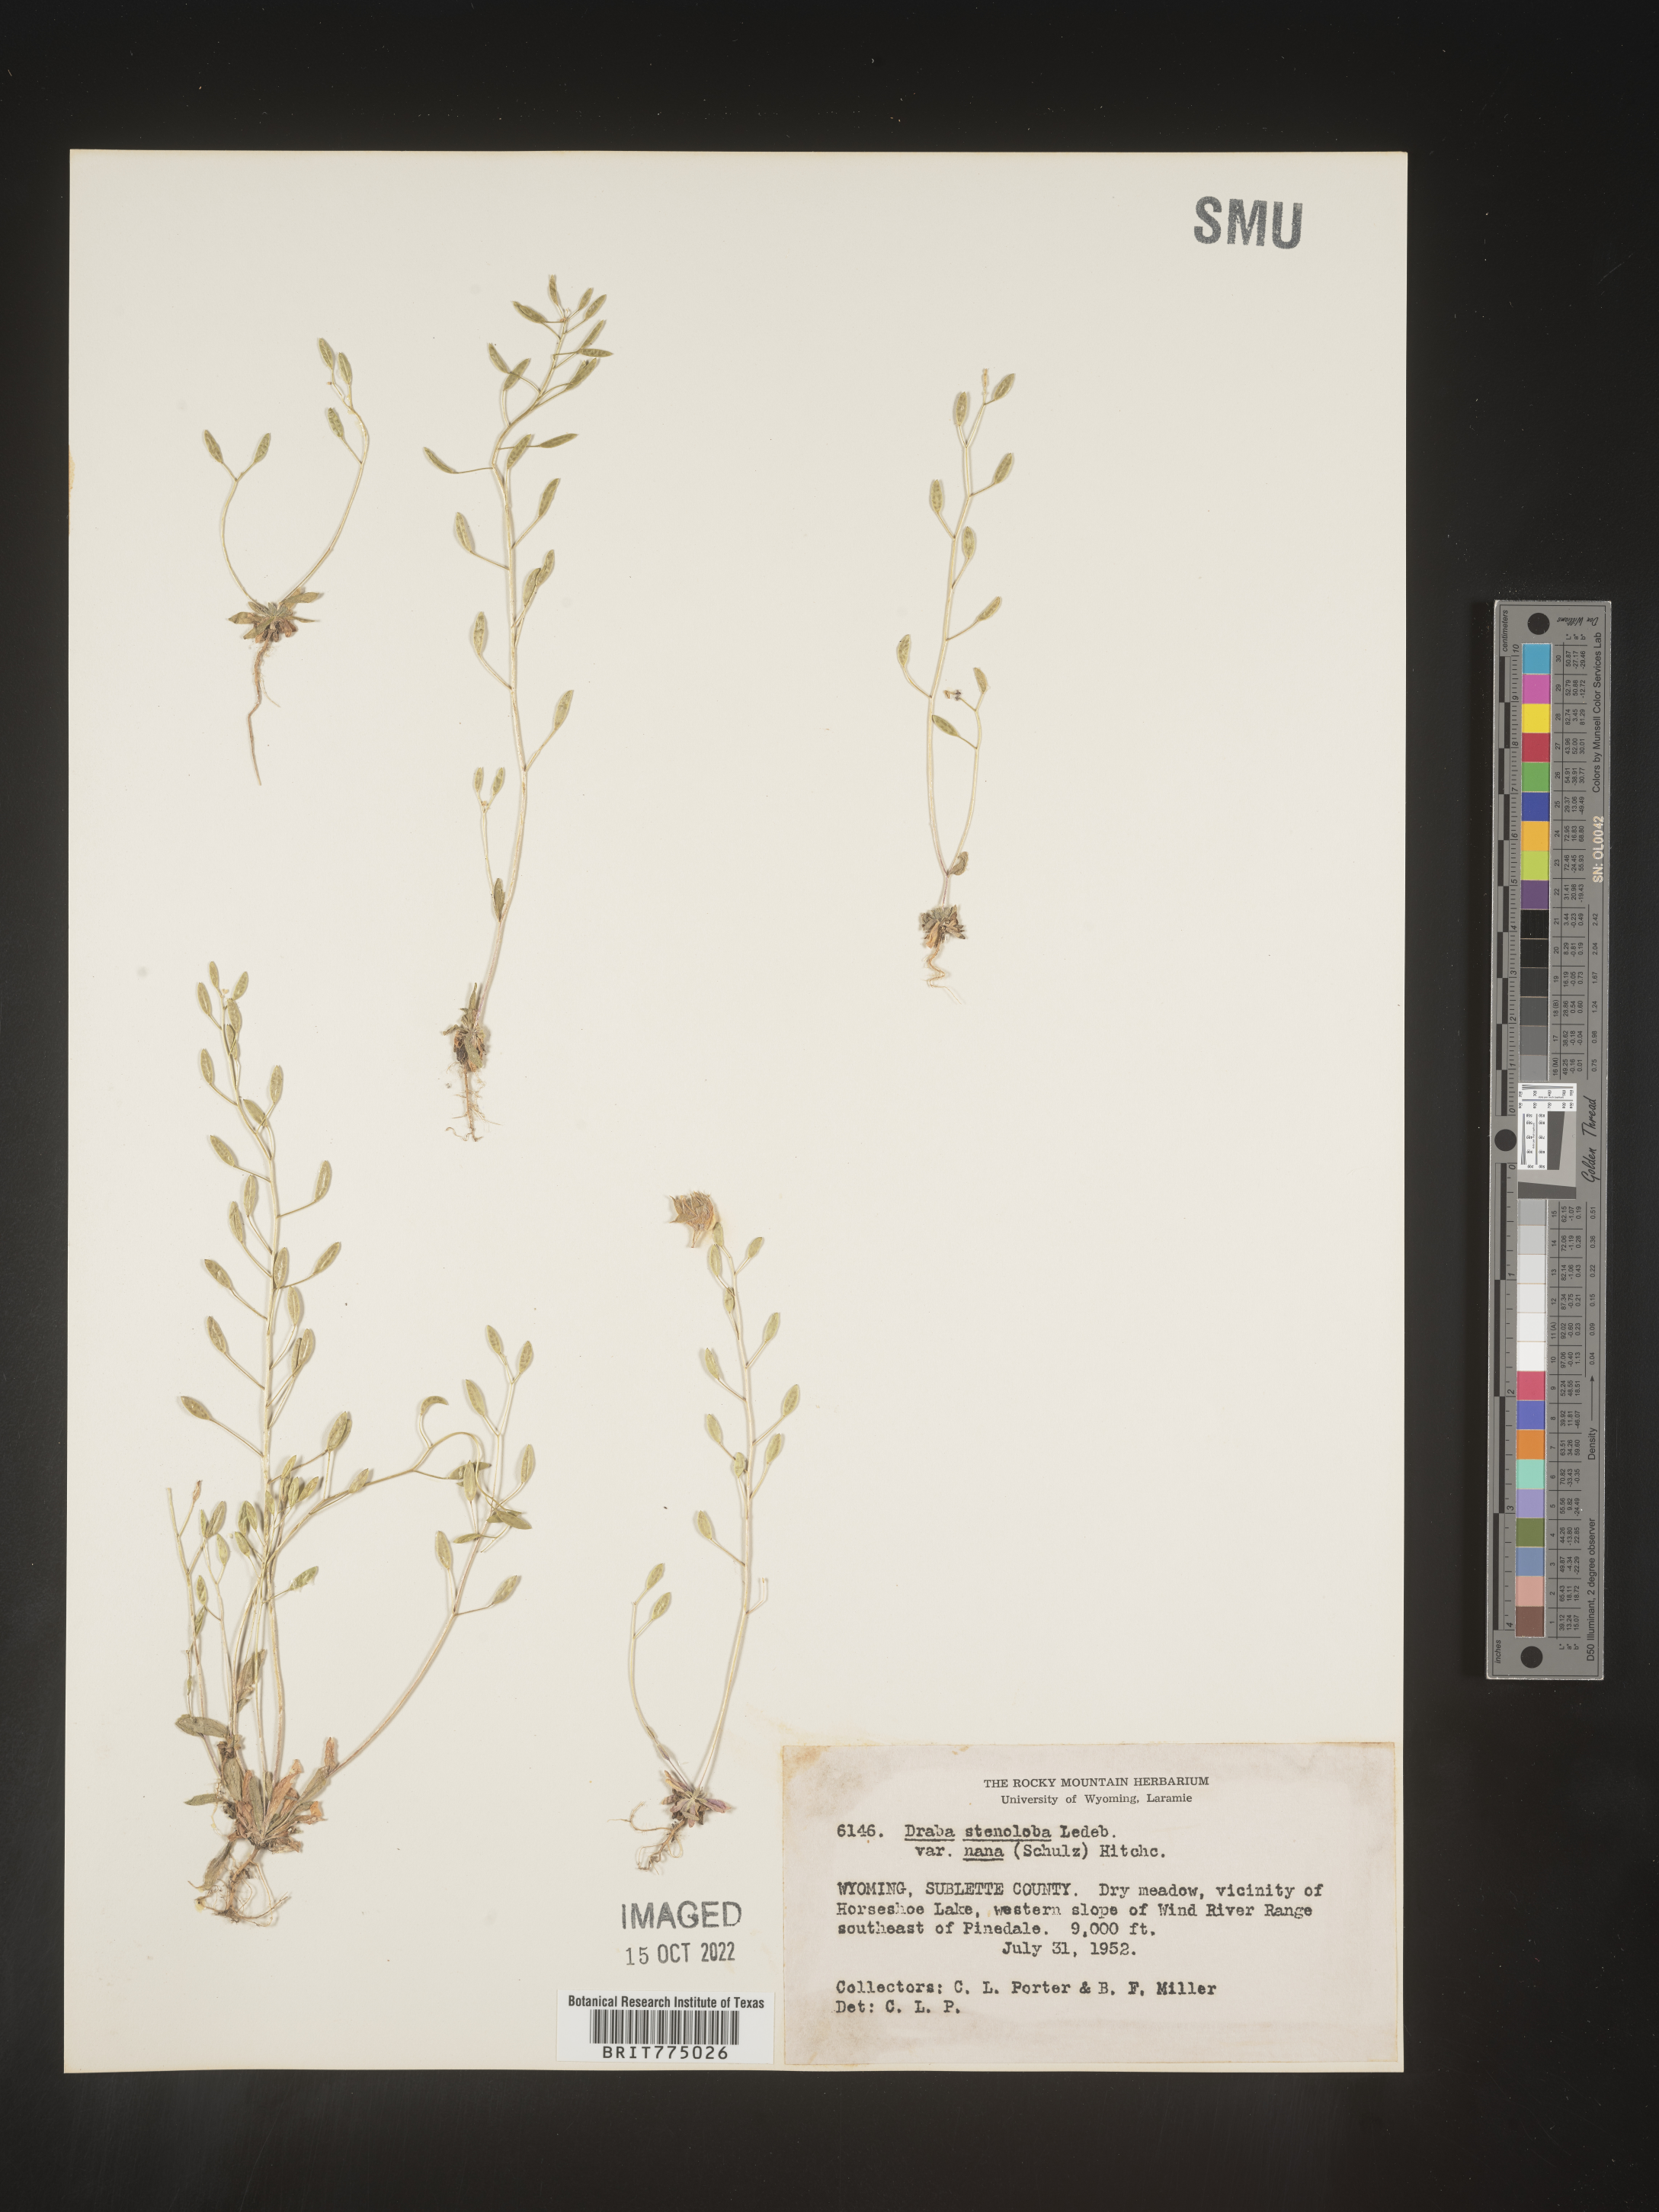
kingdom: Plantae
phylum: Tracheophyta
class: Magnoliopsida
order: Brassicales
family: Brassicaceae
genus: Draba
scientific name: Draba
